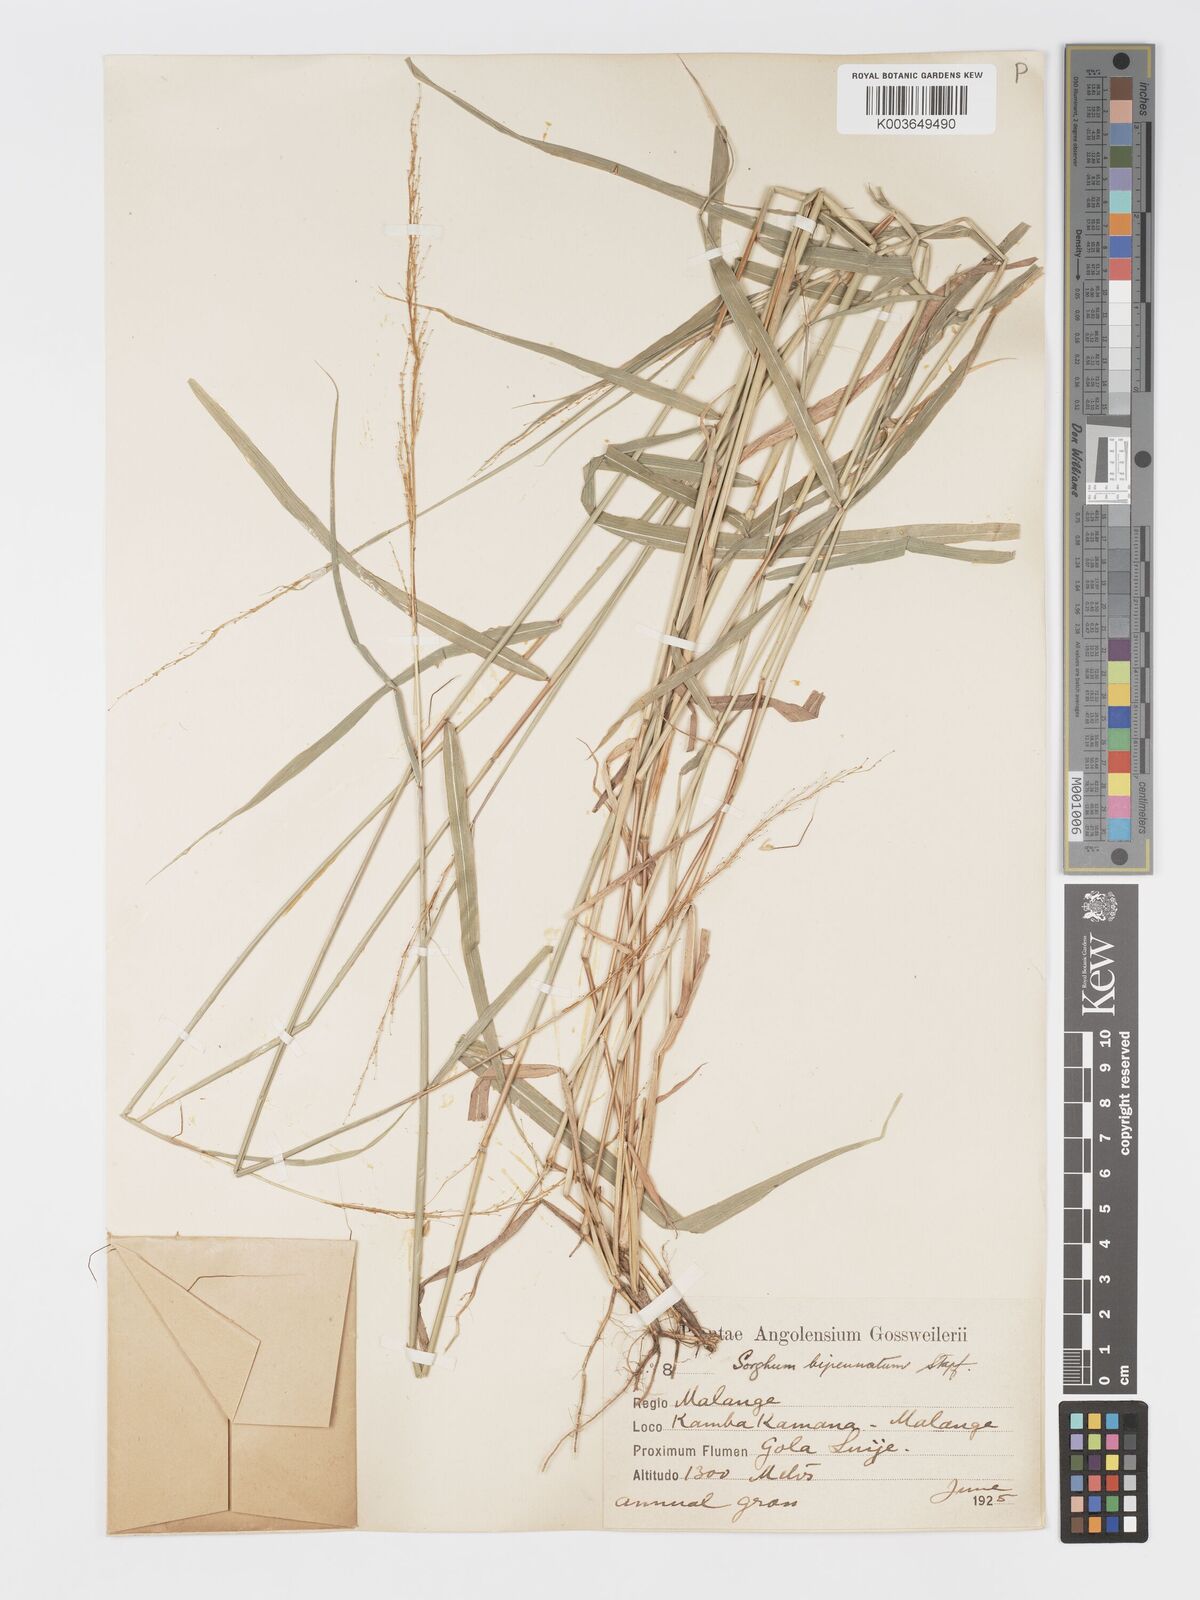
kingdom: Plantae
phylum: Tracheophyta
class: Liliopsida
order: Poales
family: Poaceae
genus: Sorghastrum
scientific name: Sorghastrum incompletum
